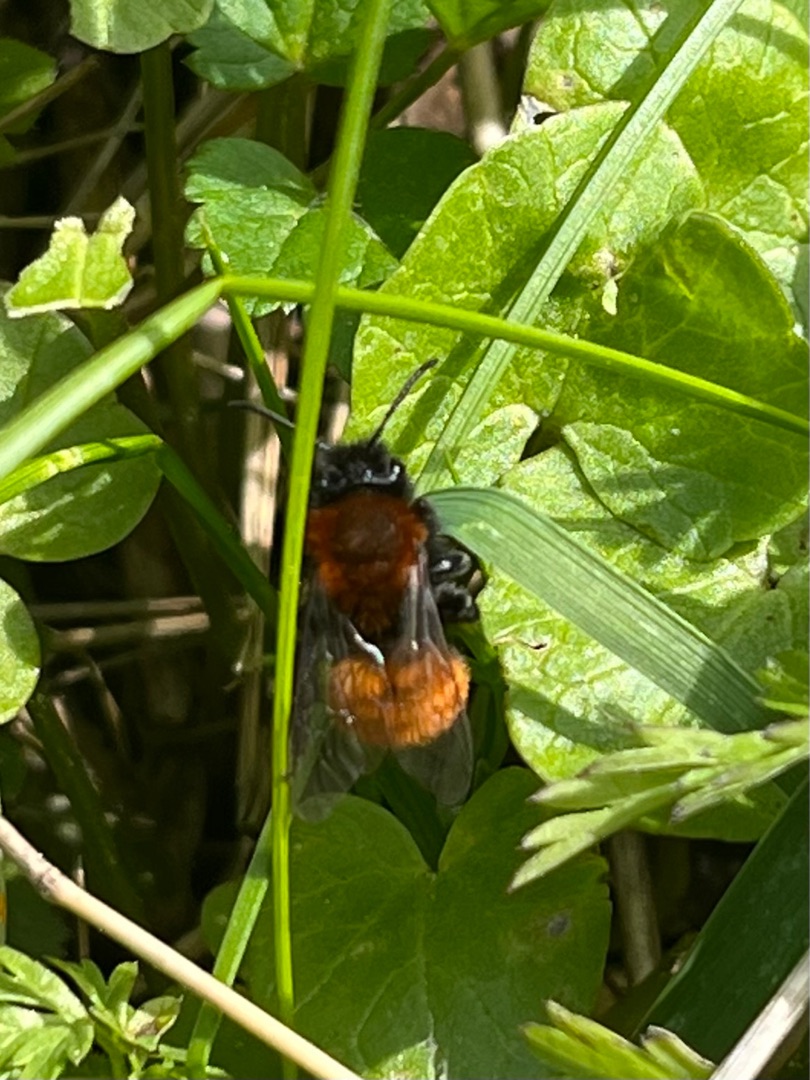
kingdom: Animalia
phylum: Arthropoda
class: Insecta
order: Hymenoptera
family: Andrenidae
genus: Andrena
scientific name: Andrena fulva
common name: Rødpelset jordbi
